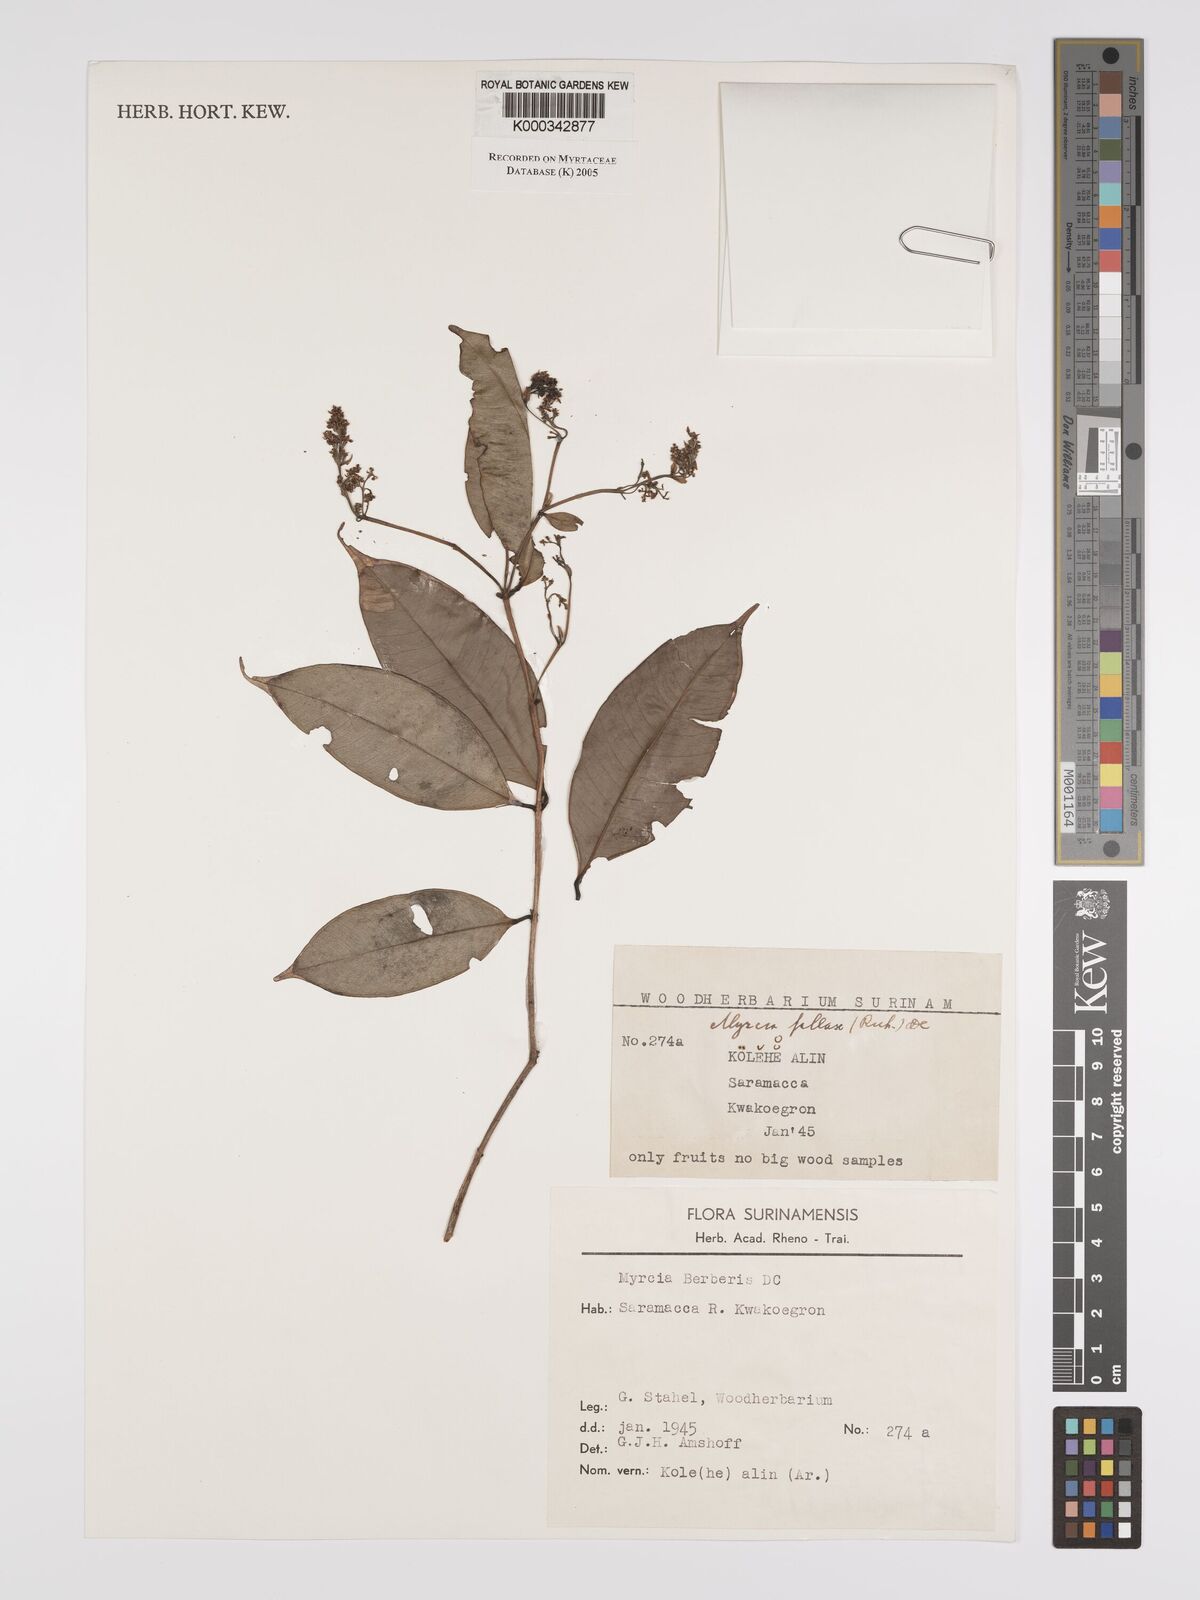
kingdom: Plantae
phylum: Tracheophyta
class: Magnoliopsida
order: Myrtales
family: Myrtaceae
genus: Myrcia
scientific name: Myrcia splendens
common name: Surinam cherry
